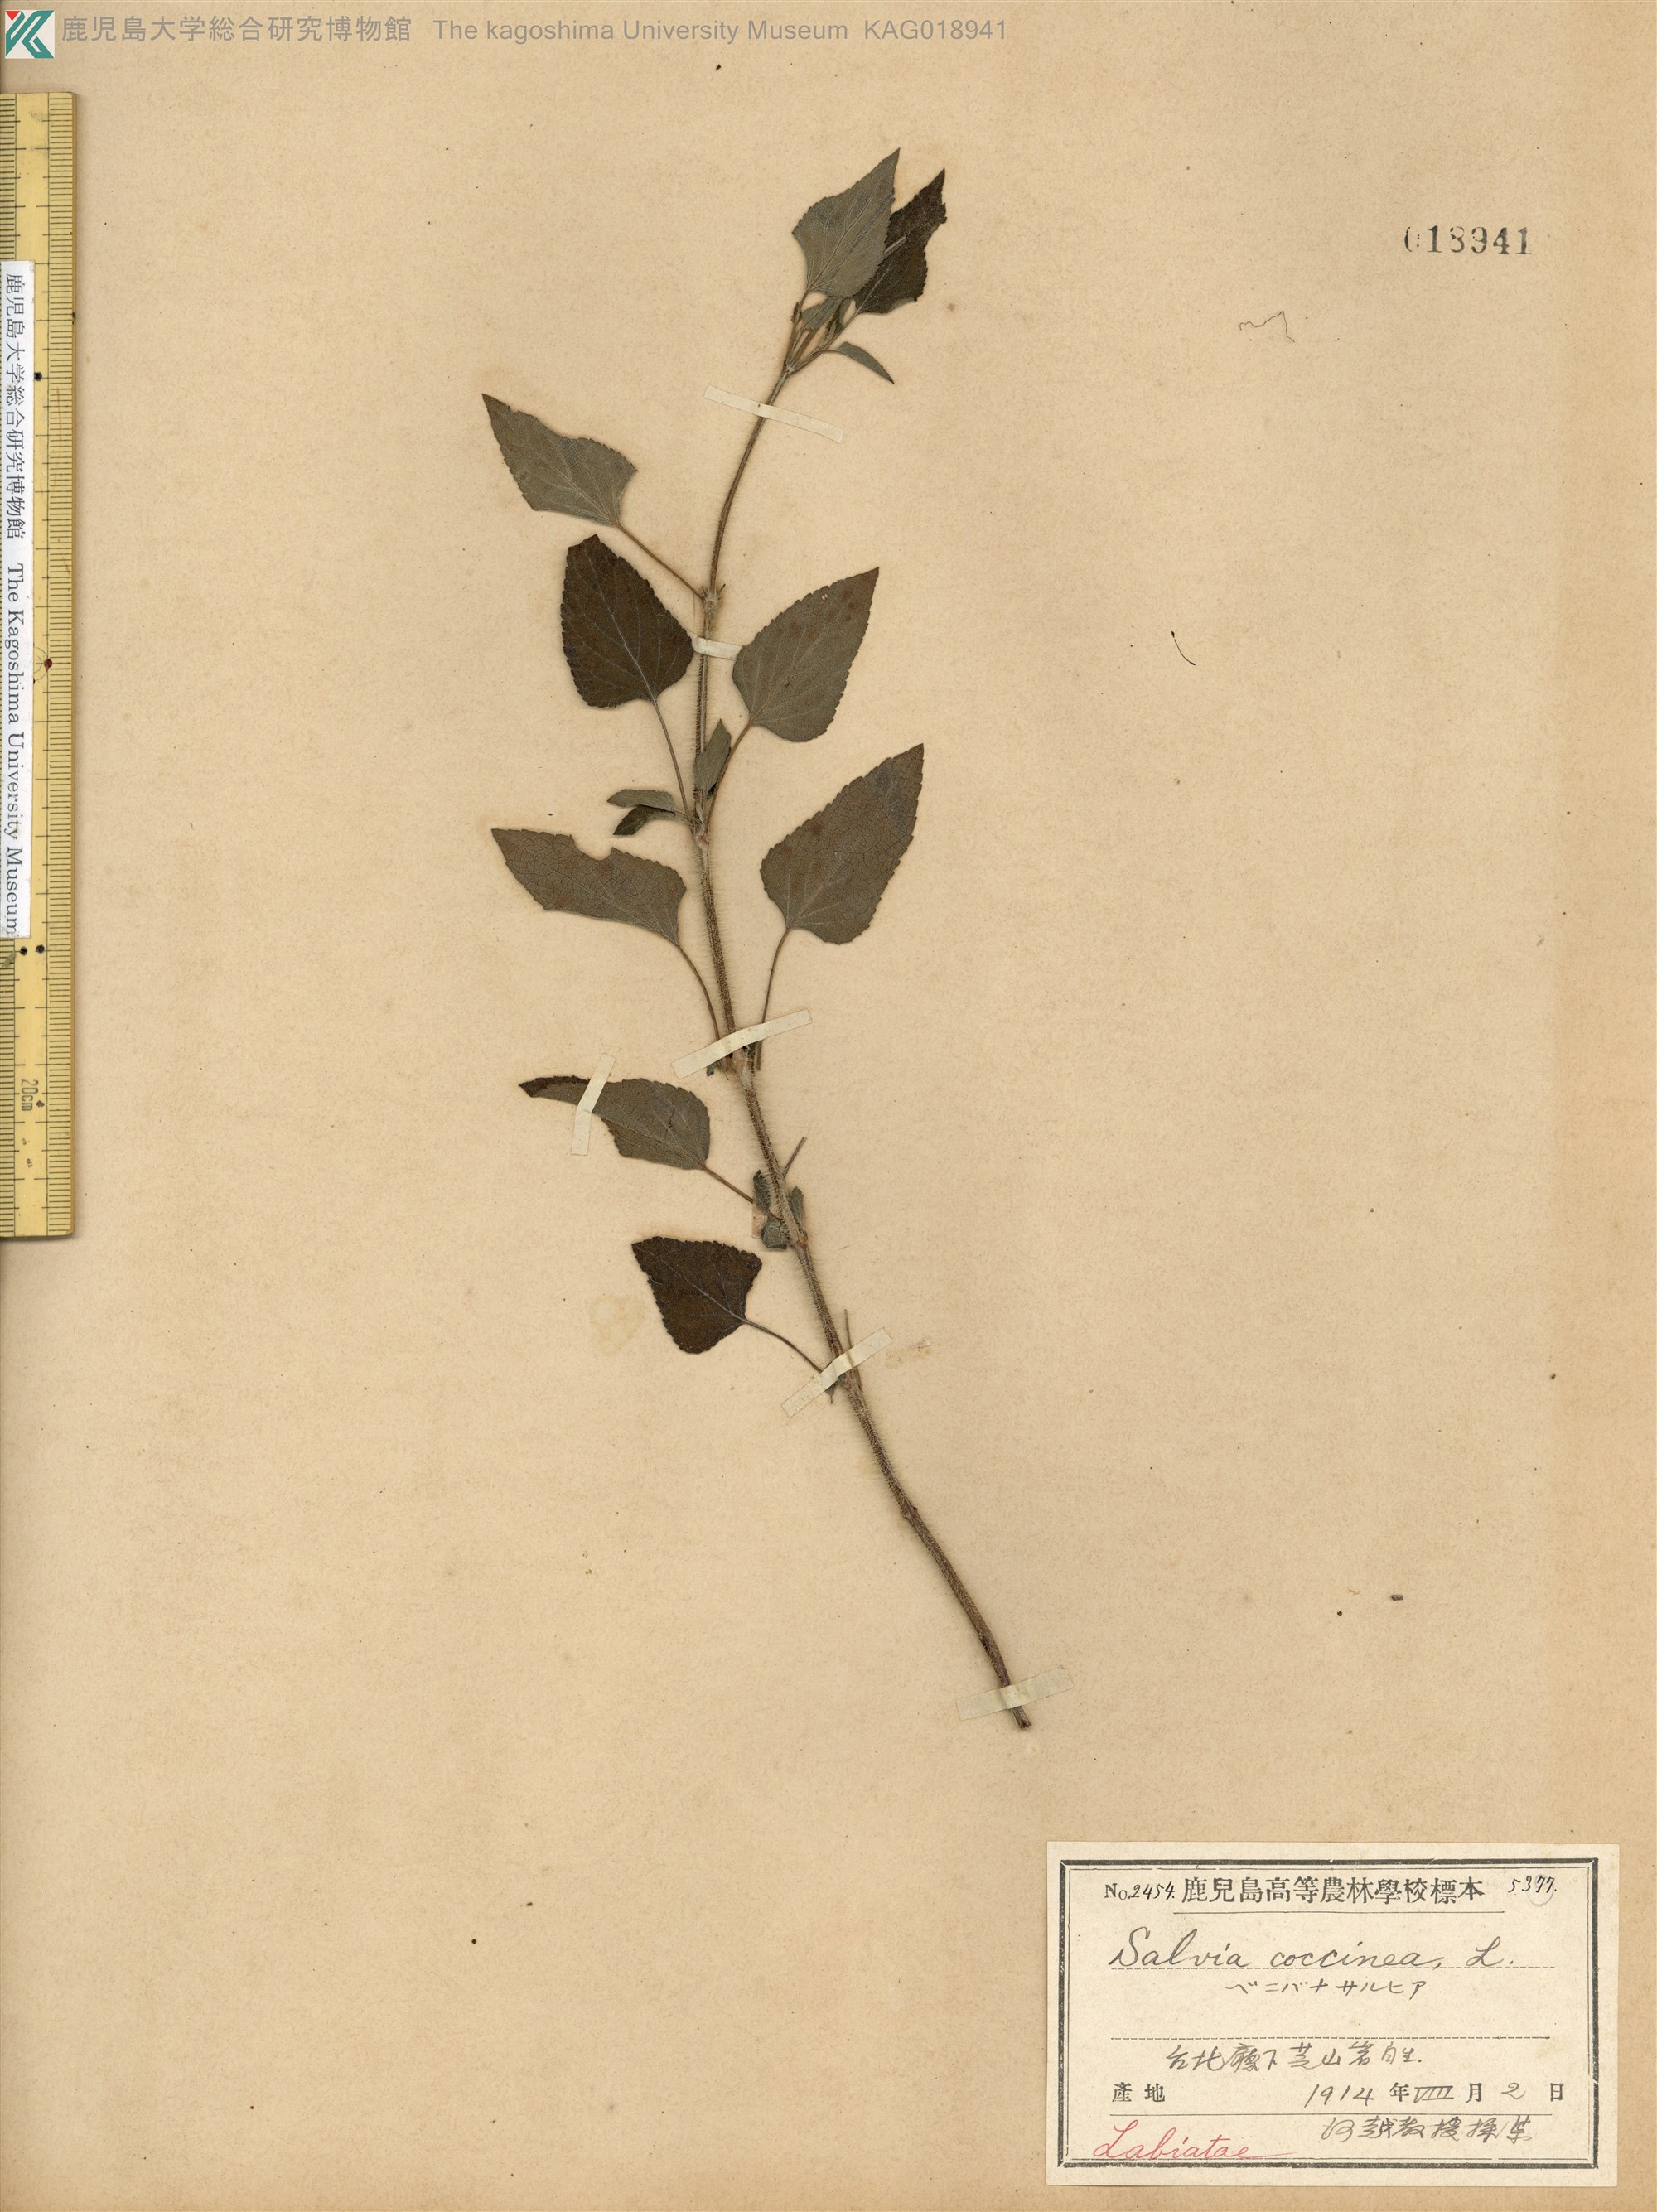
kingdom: Plantae
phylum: Tracheophyta
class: Magnoliopsida
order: Lamiales
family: Lamiaceae
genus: Salvia
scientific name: Salvia coccinea
